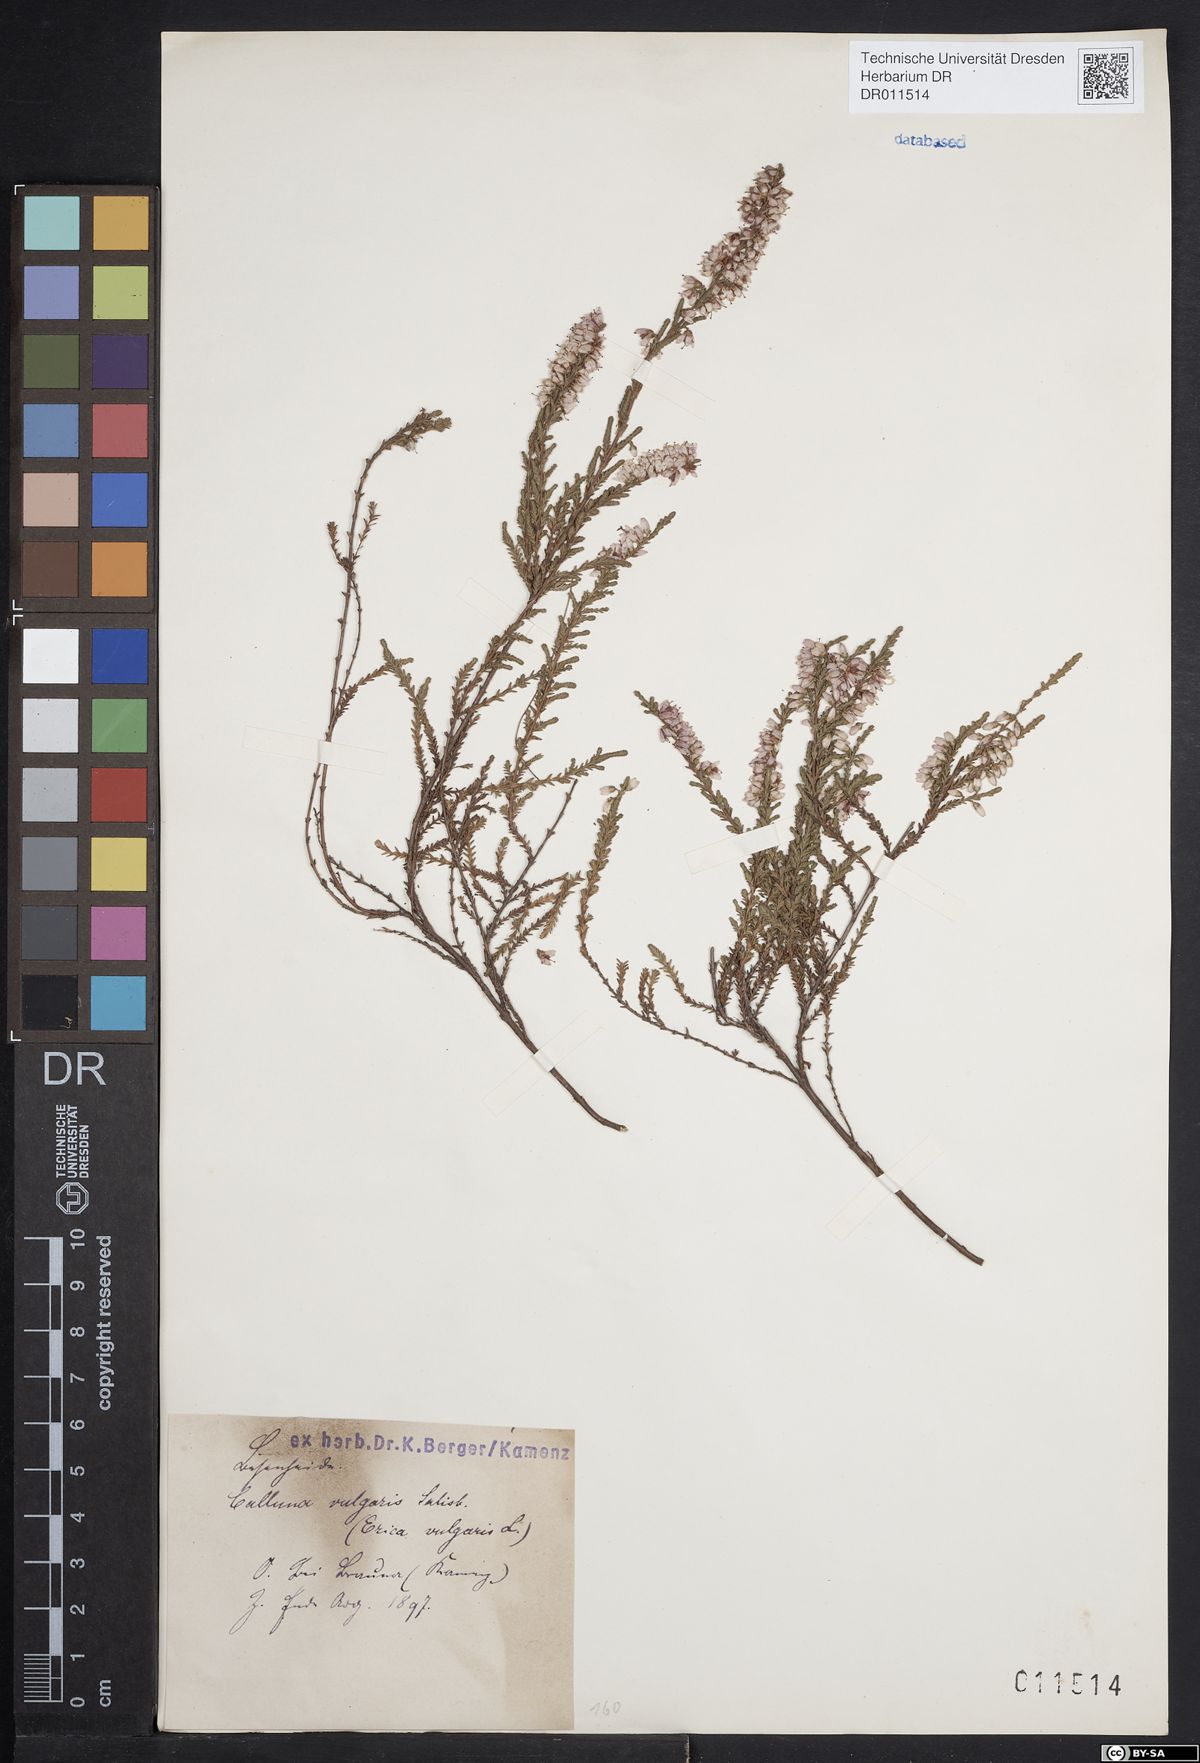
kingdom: Plantae
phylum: Tracheophyta
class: Magnoliopsida
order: Ericales
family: Ericaceae
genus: Calluna
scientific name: Calluna vulgaris
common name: Heather
